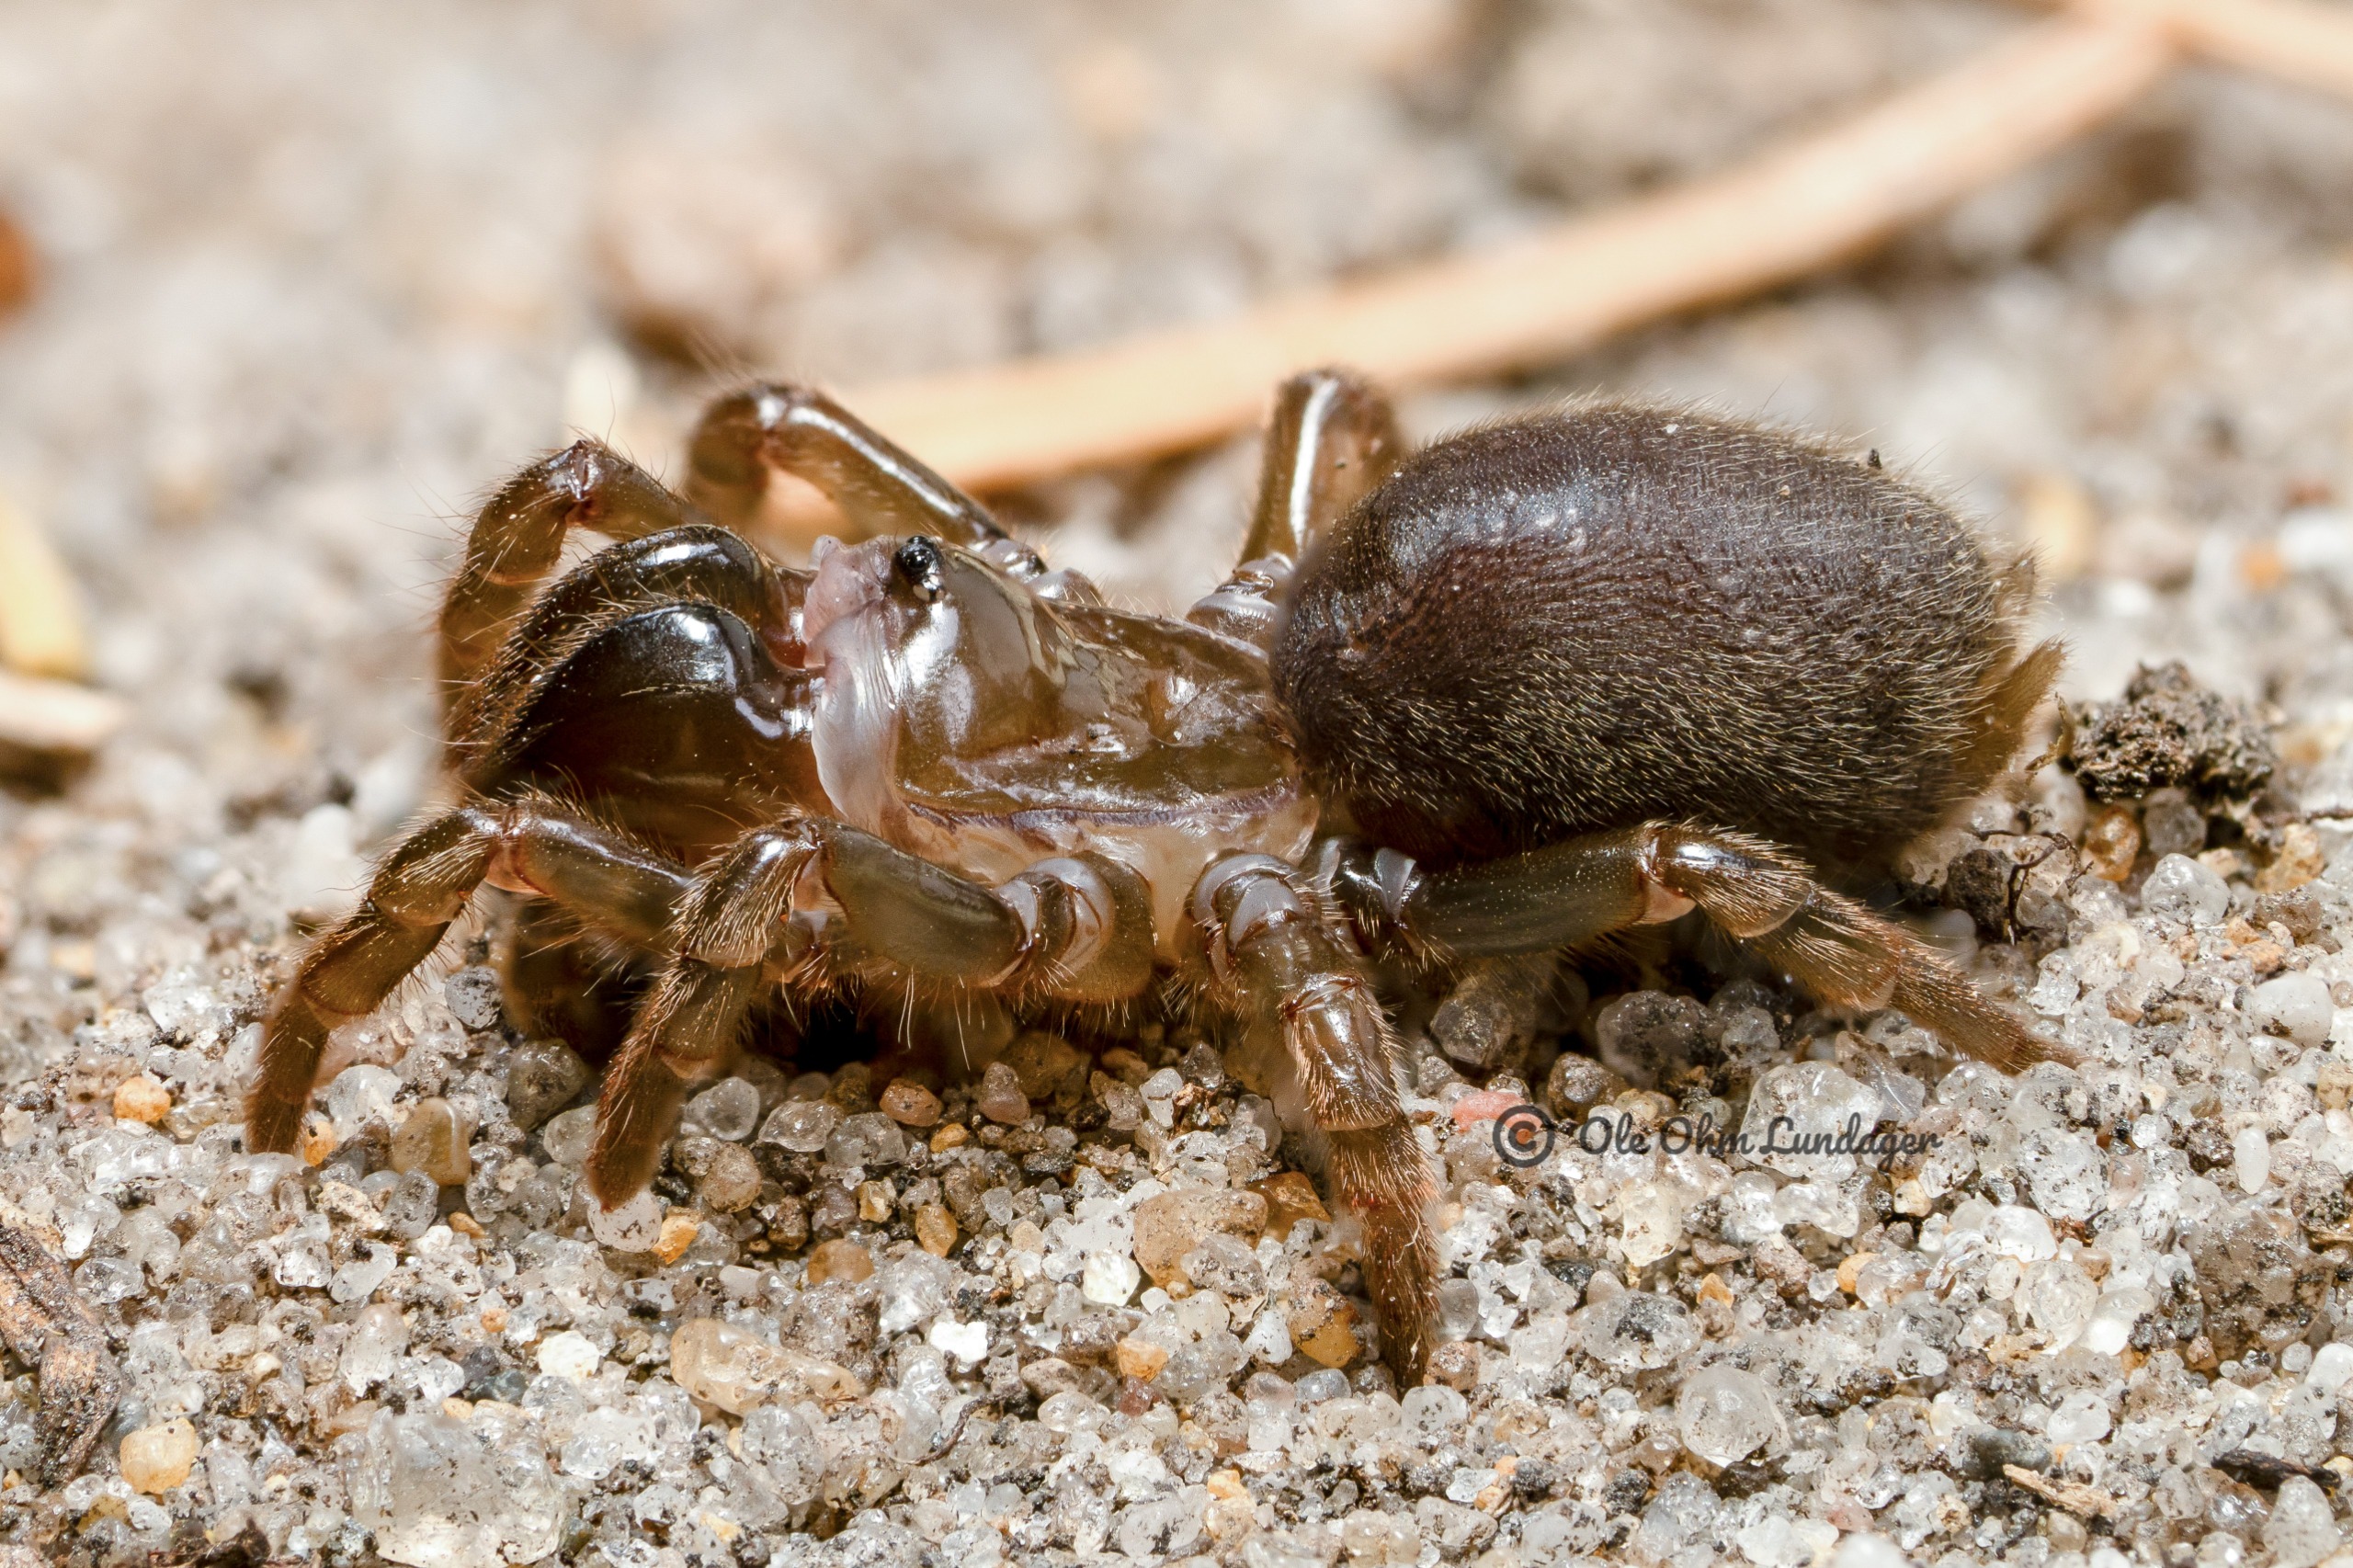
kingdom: Animalia
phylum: Arthropoda
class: Arachnida
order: Araneae
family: Atypidae
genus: Atypus
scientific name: Atypus affinis
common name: Nordlig fugleedderkop
